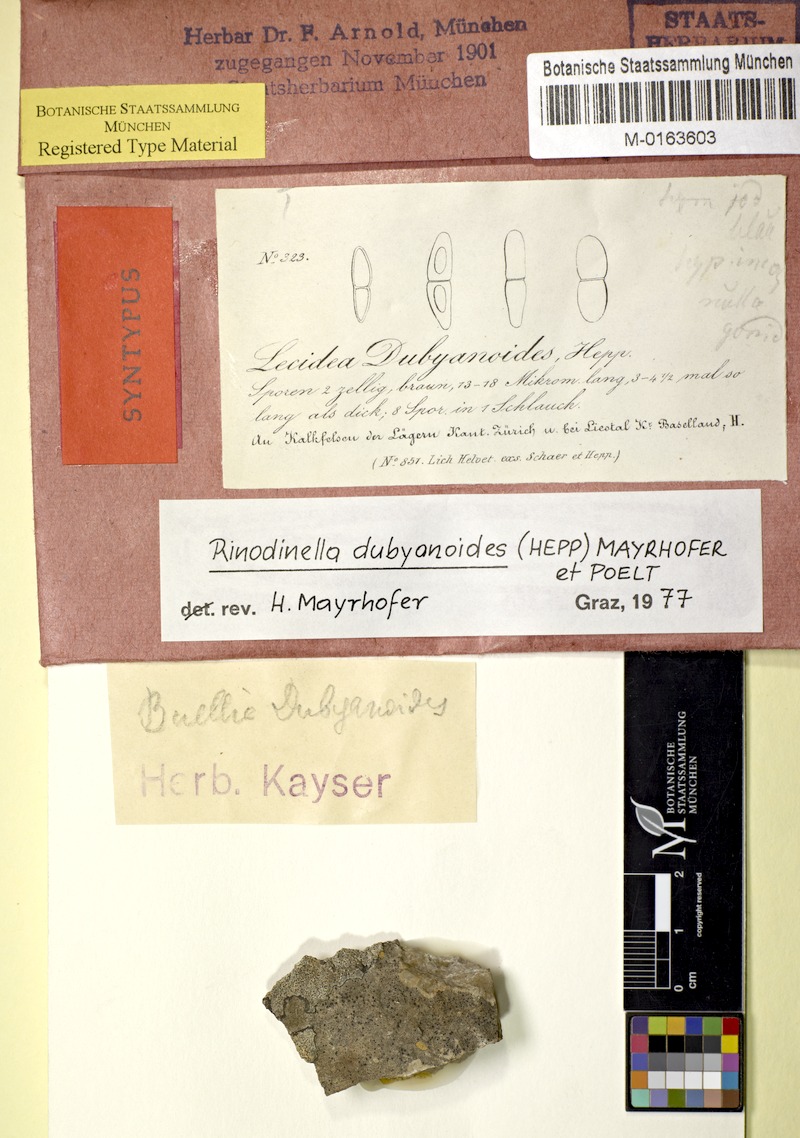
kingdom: Fungi
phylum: Ascomycota
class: Lecanoromycetes
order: Caliciales
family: Physciaceae
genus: Rinodinella
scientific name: Rinodinella dubyanoides
